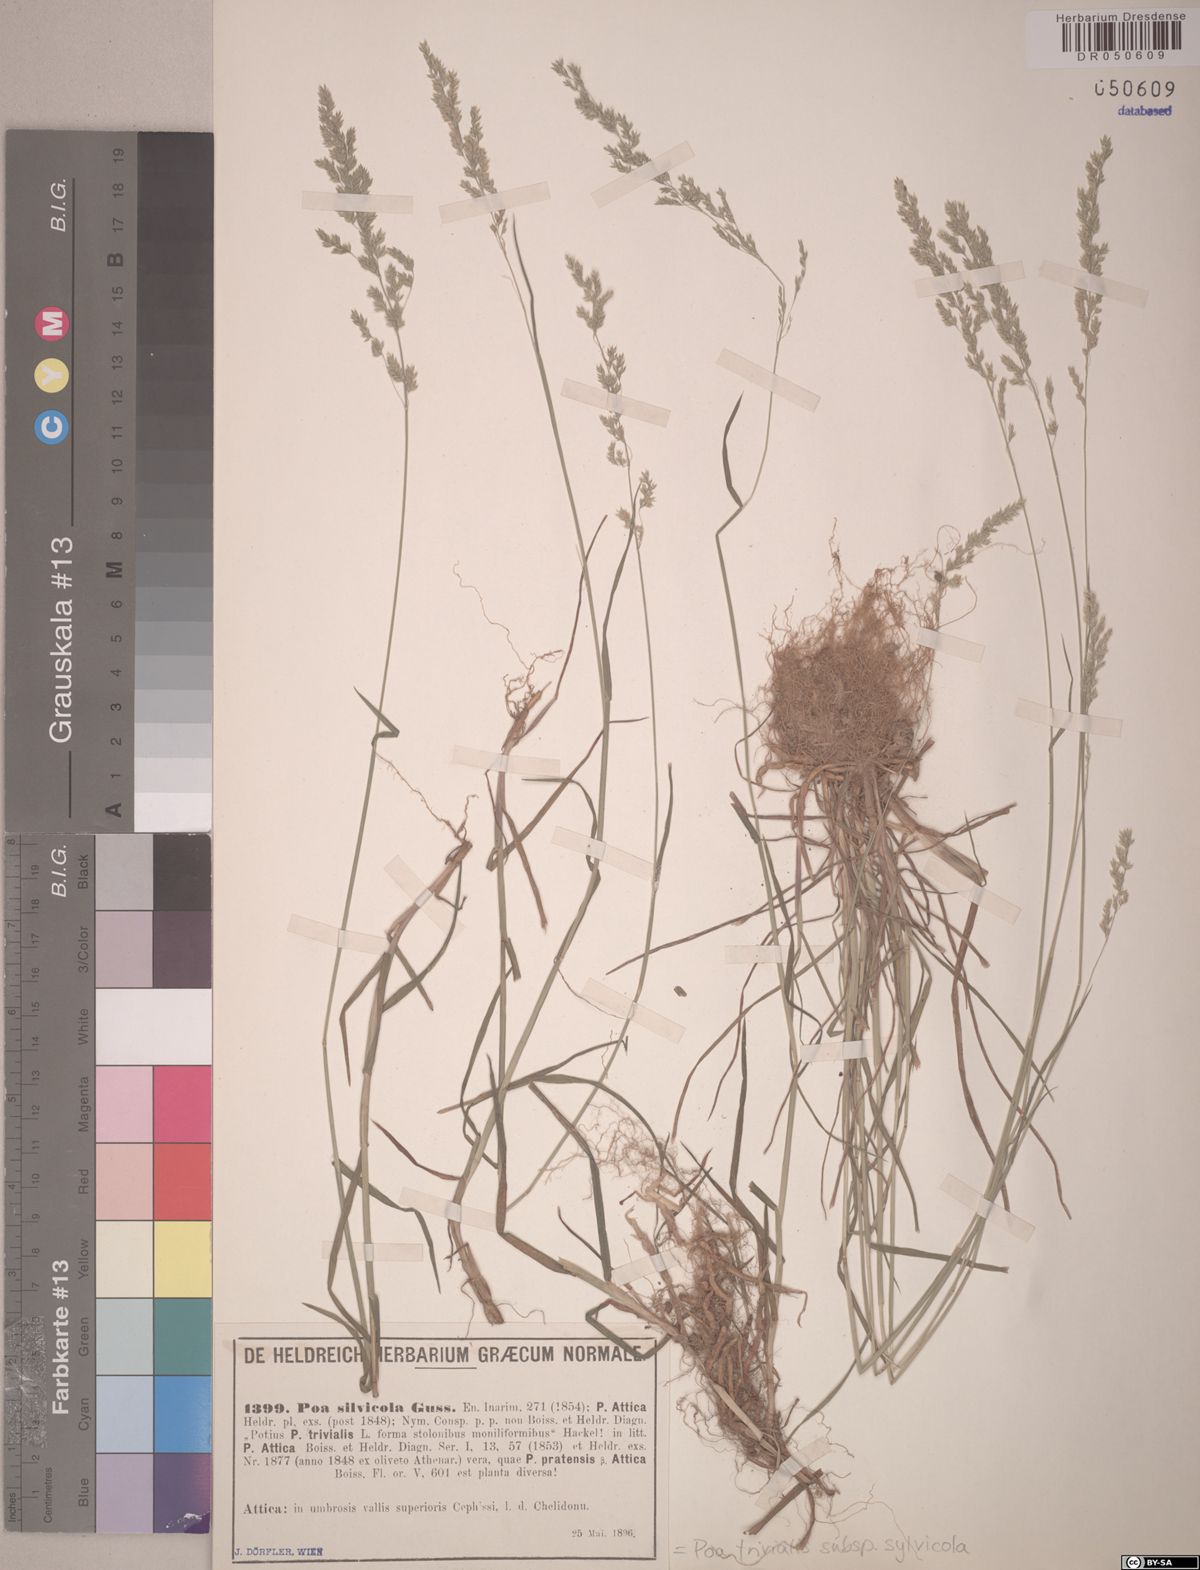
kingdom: Plantae
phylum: Tracheophyta
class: Liliopsida
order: Poales
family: Poaceae
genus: Poa
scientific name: Poa trivialis
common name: Rough bluegrass
